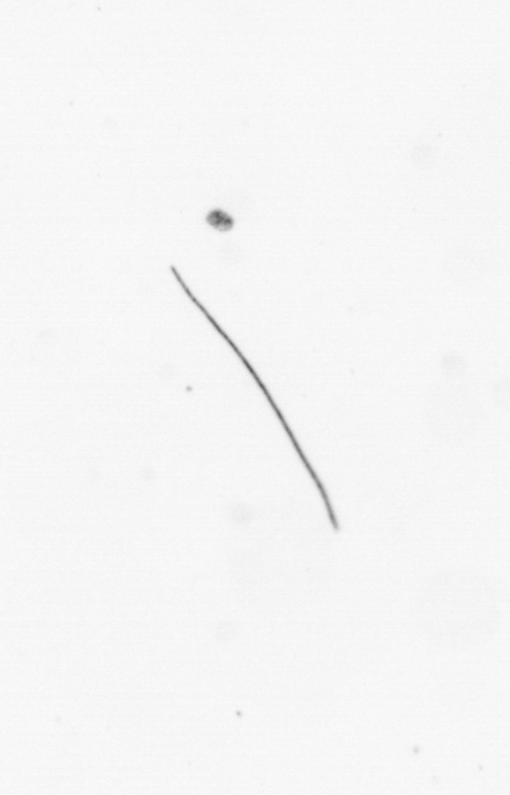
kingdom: Chromista
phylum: Ochrophyta
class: Bacillariophyceae
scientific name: Bacillariophyceae
